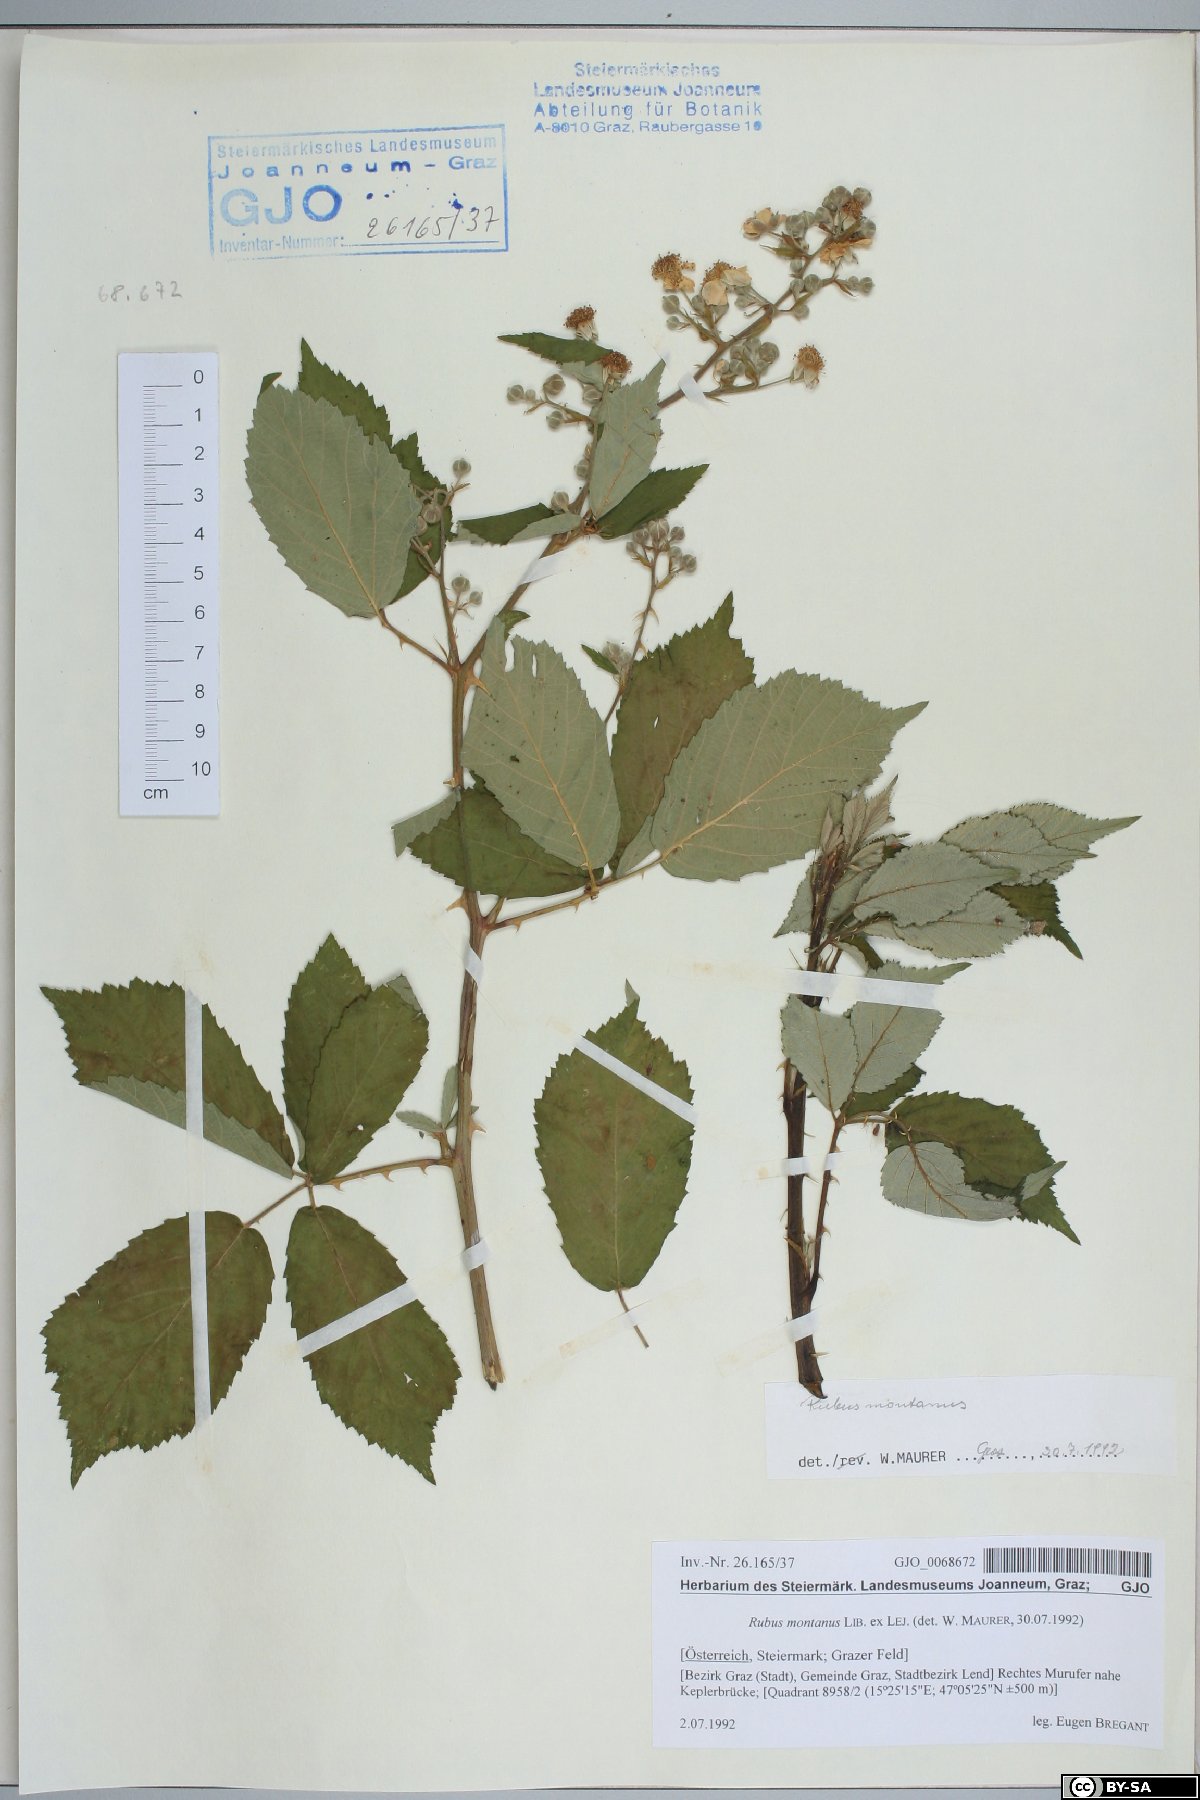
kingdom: Plantae
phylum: Tracheophyta
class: Magnoliopsida
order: Rosales
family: Rosaceae
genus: Rubus
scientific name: Rubus montanus
